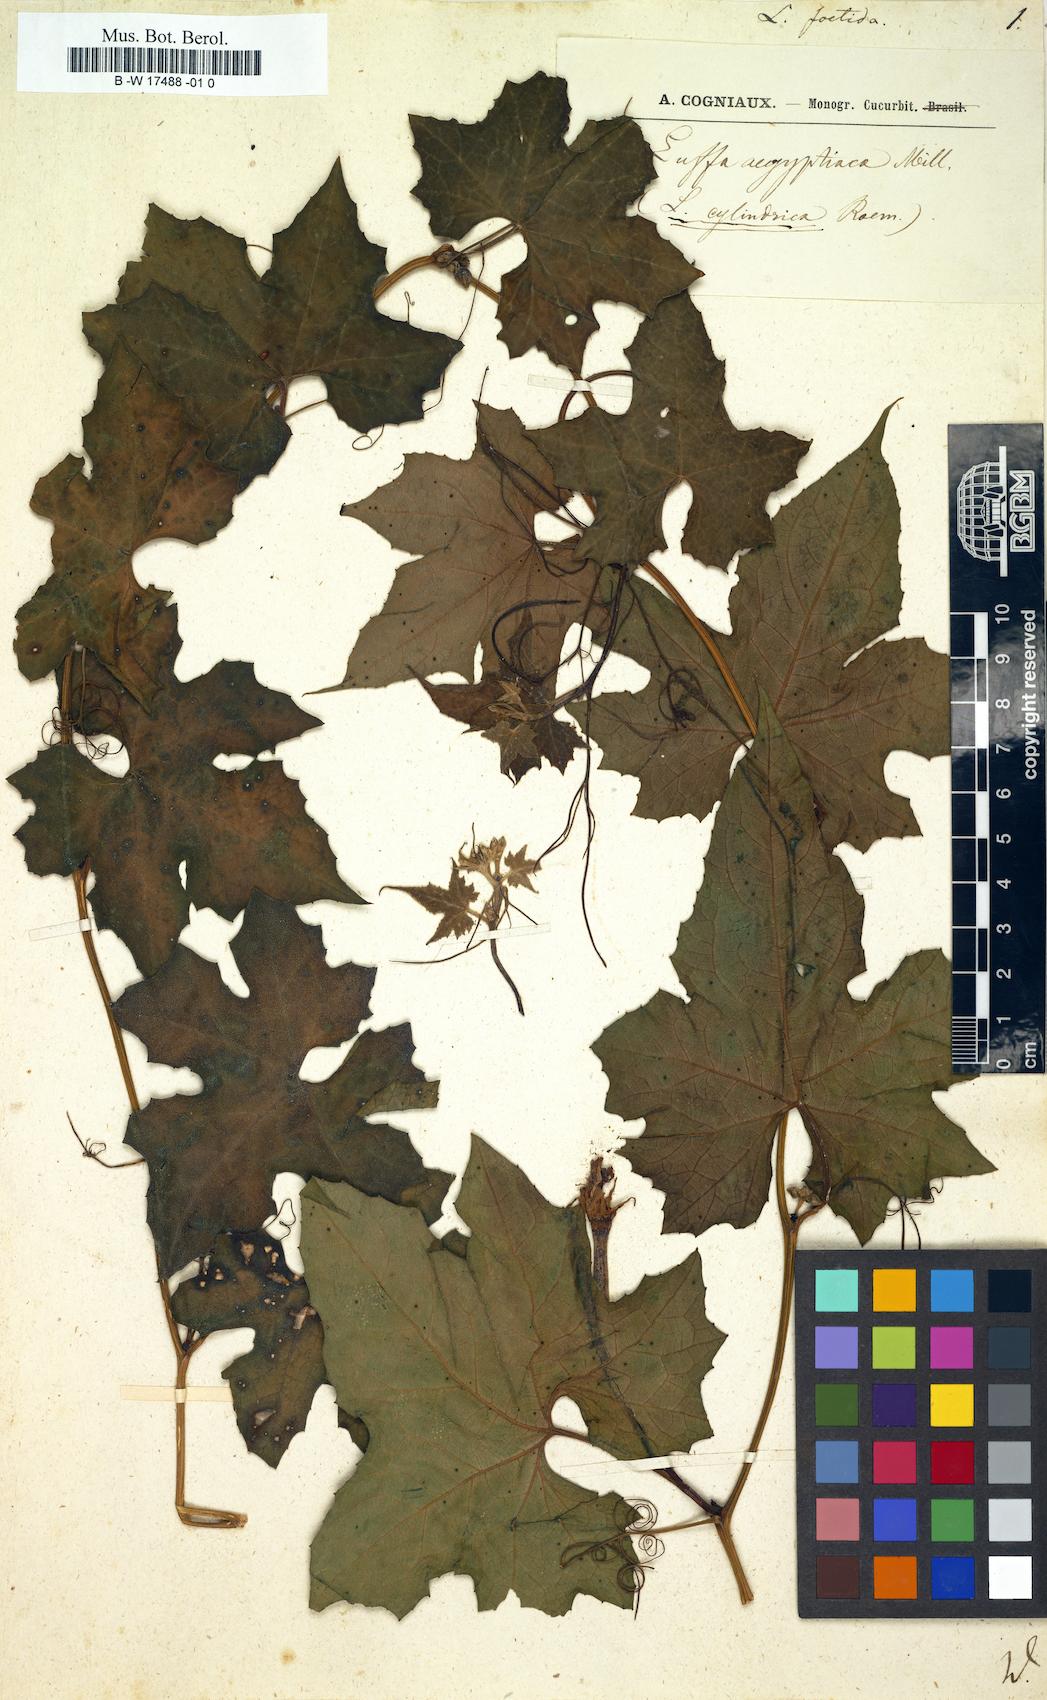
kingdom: Plantae
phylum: Tracheophyta
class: Magnoliopsida
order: Cucurbitales
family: Cucurbitaceae
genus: Luffa
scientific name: Luffa acutangula
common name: Sinkwa towelsponge
